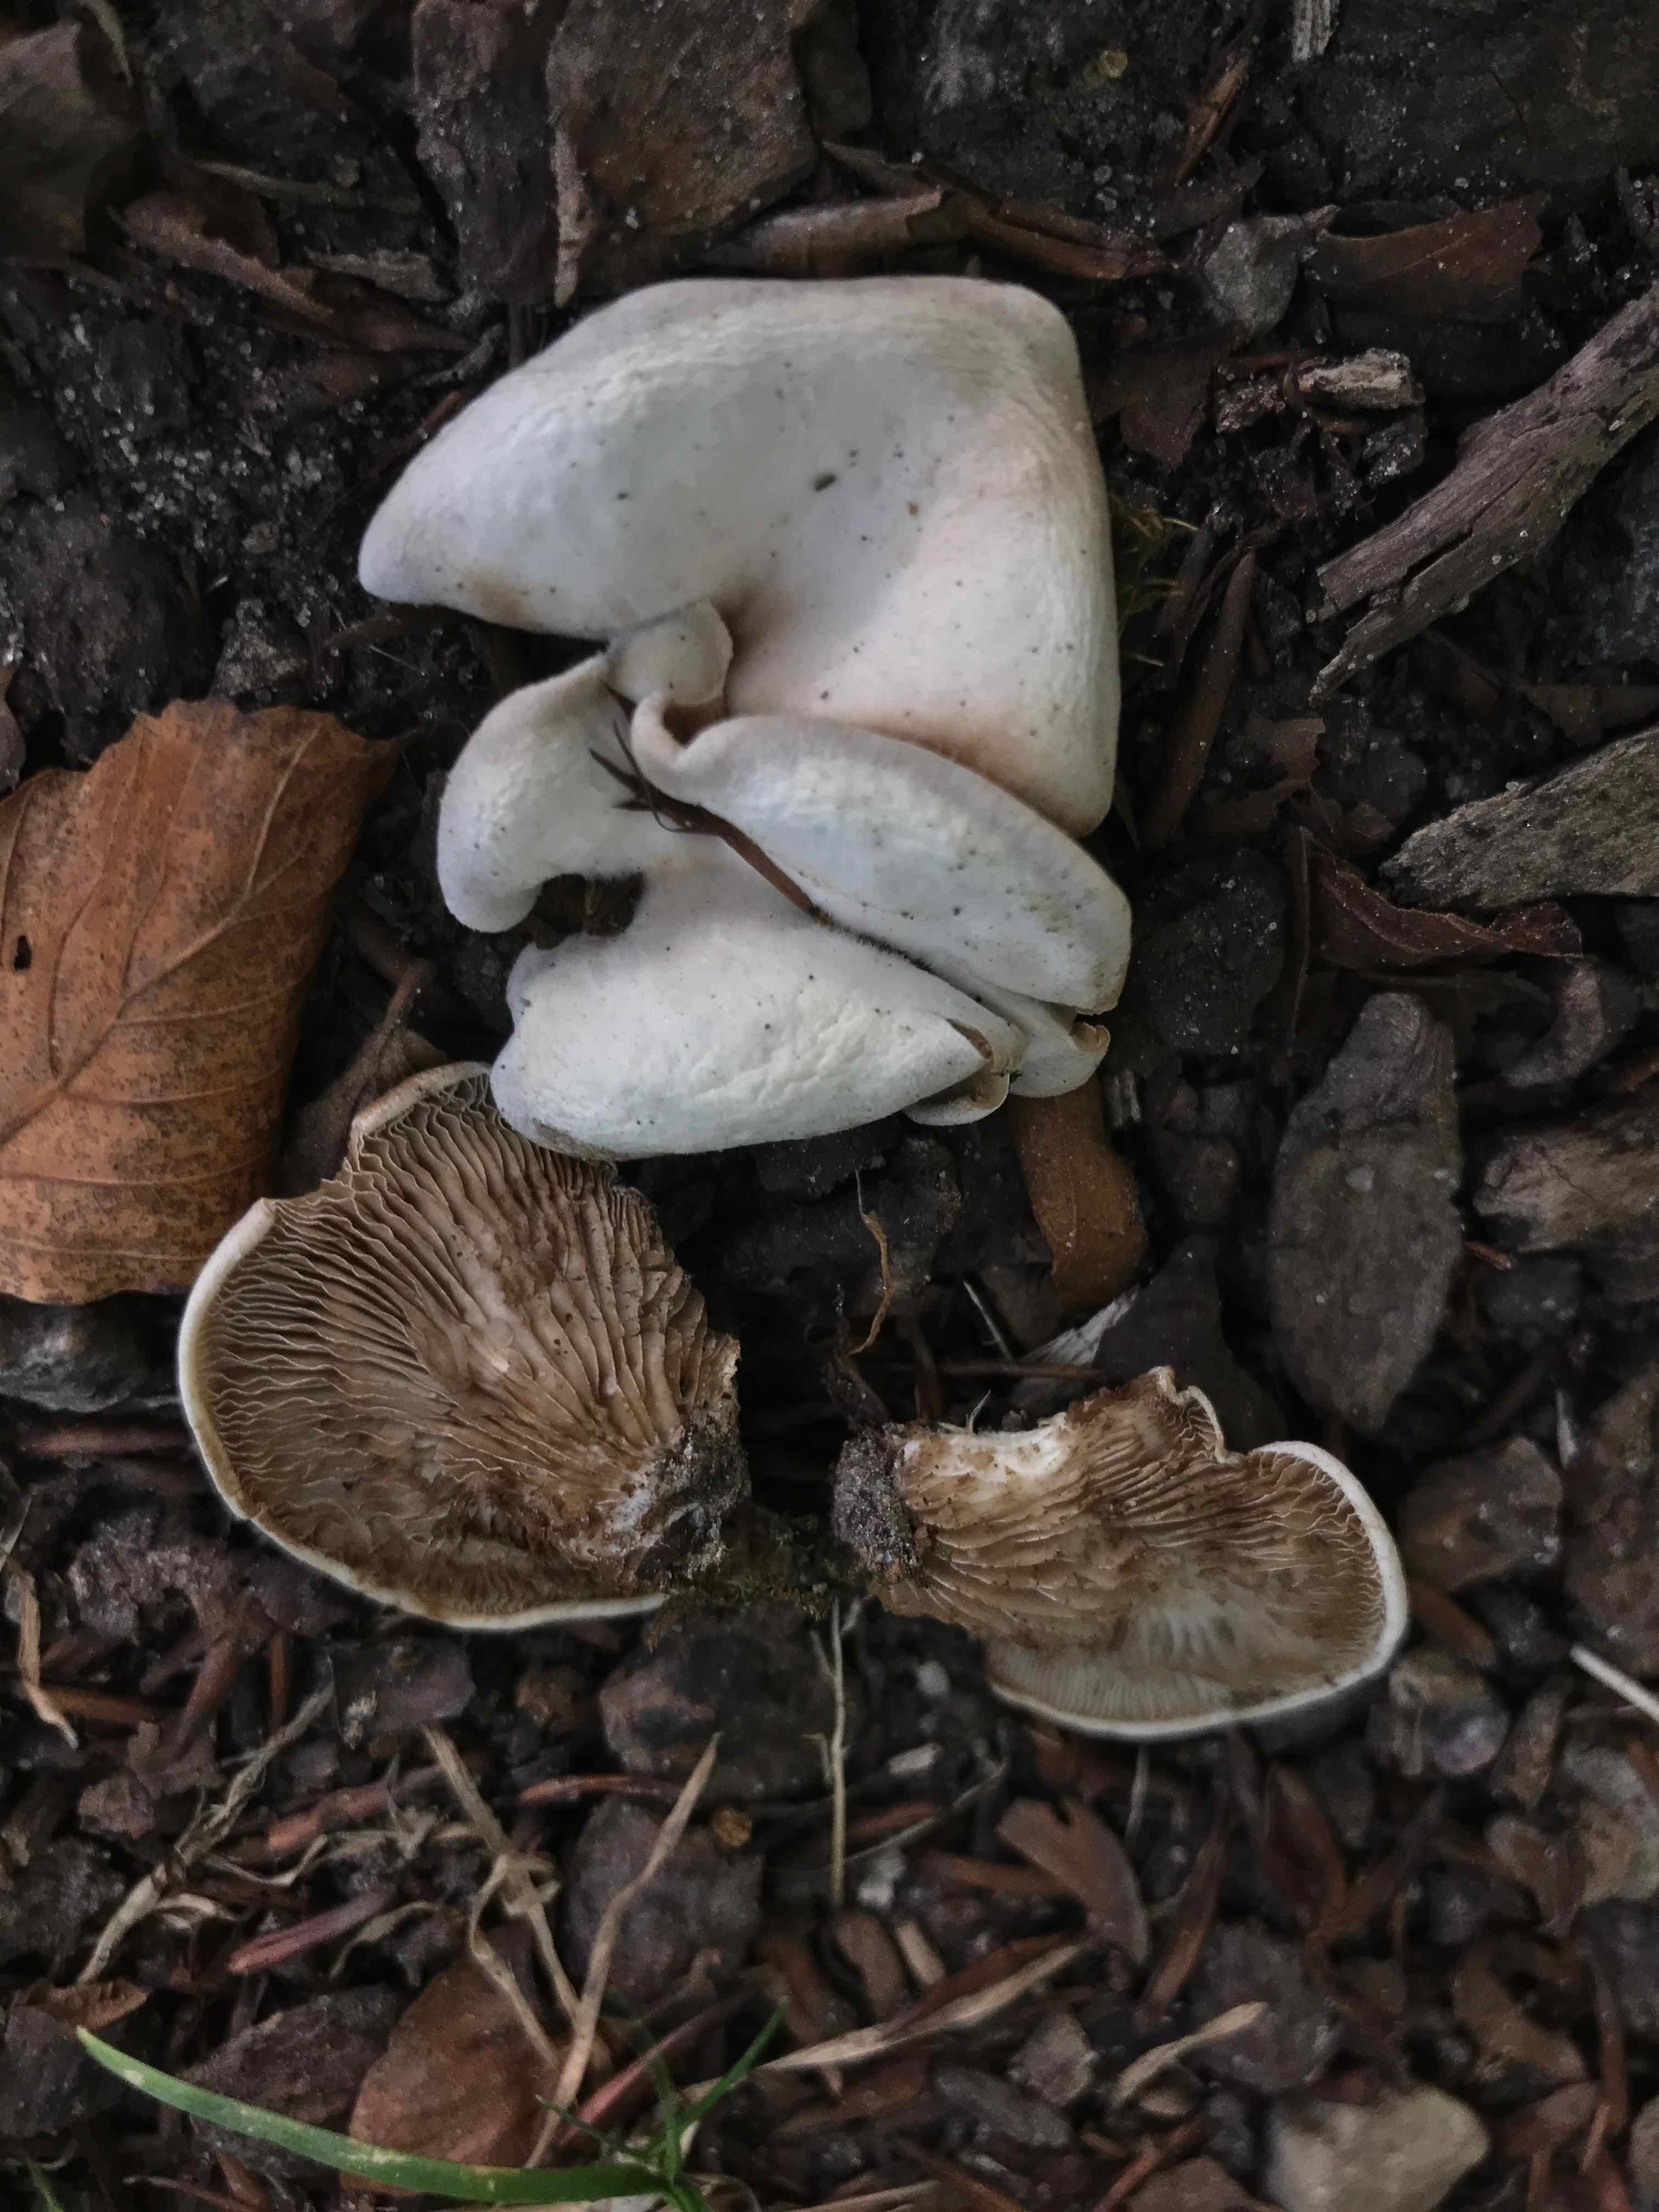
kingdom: Fungi
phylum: Basidiomycota
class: Agaricomycetes
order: Agaricales
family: Crepidotaceae
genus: Crepidotus
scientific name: Crepidotus autochthonus
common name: skæv muslingesvamp
